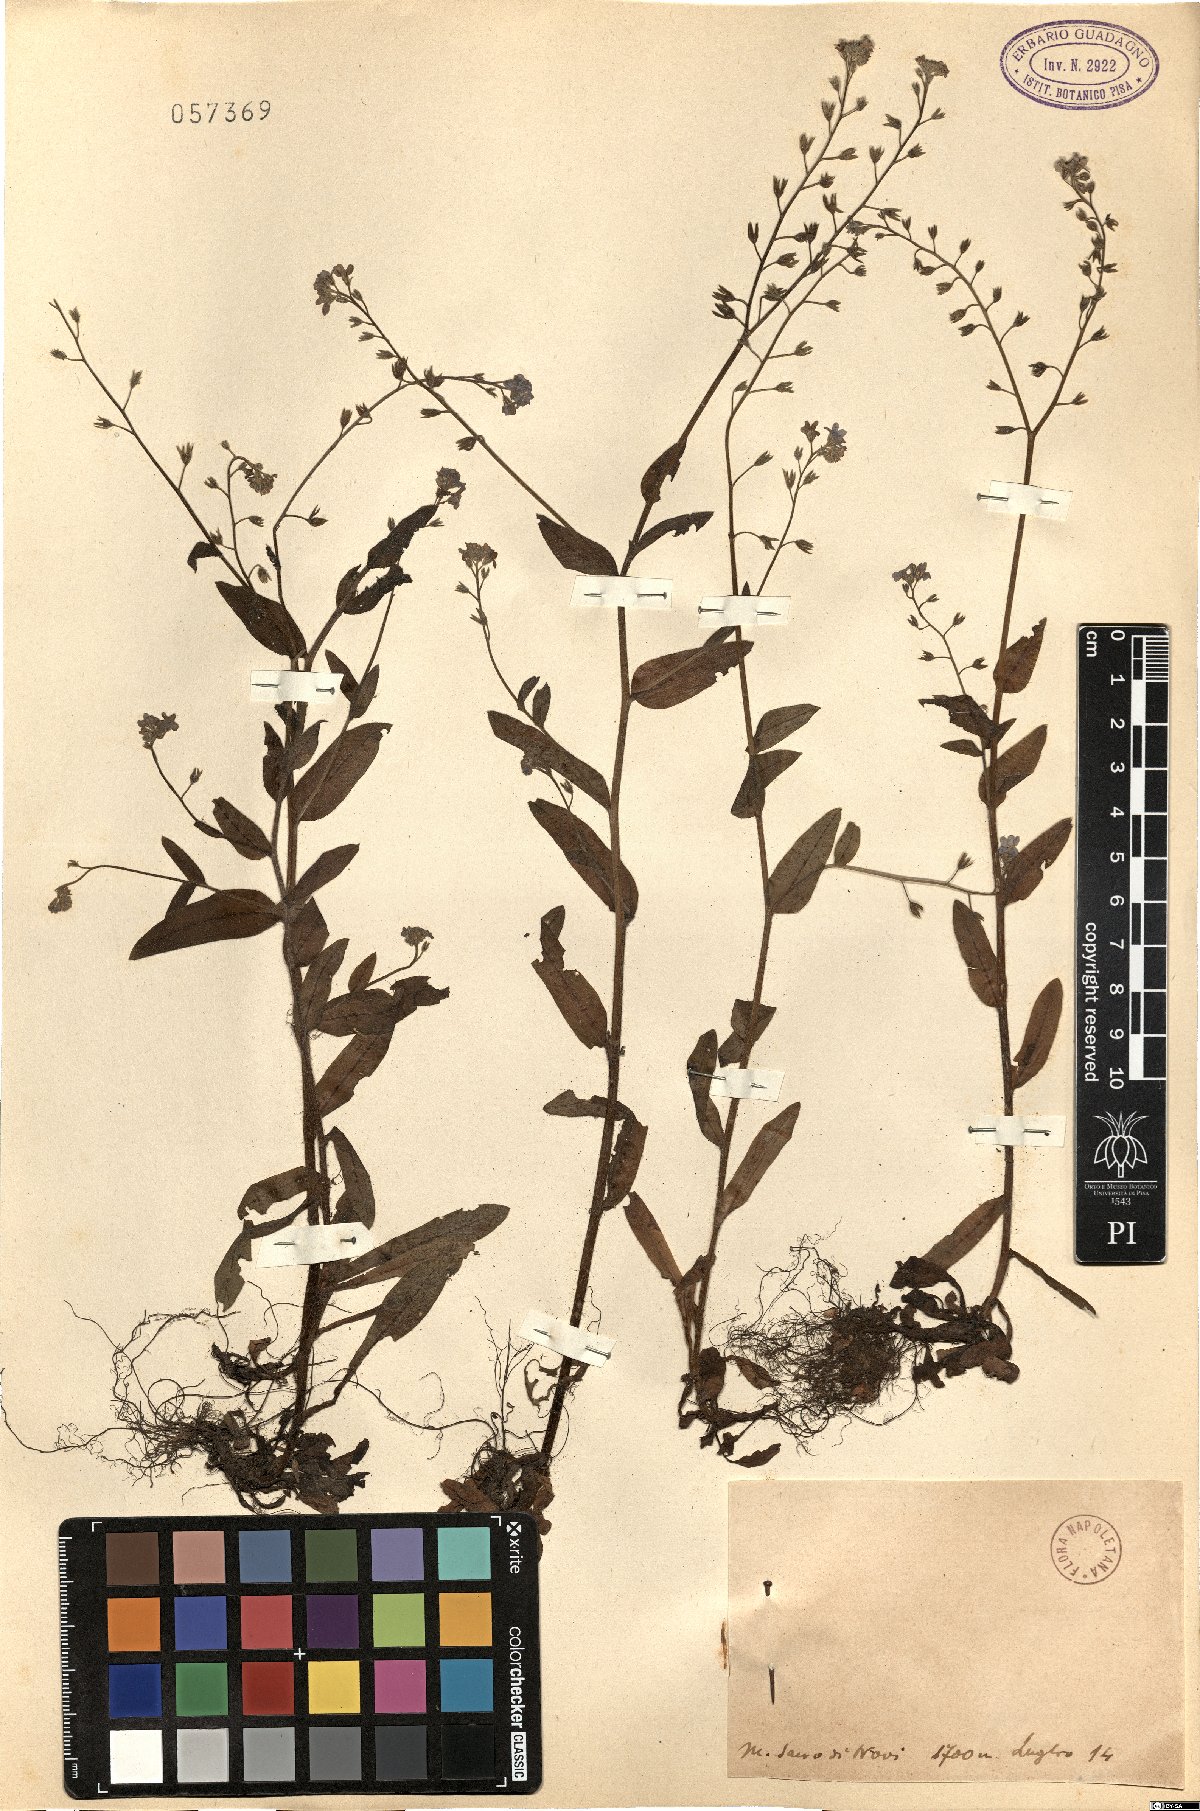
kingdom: Plantae
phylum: Tracheophyta
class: Magnoliopsida
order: Boraginales
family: Boraginaceae
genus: Myosotis
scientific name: Myosotis
